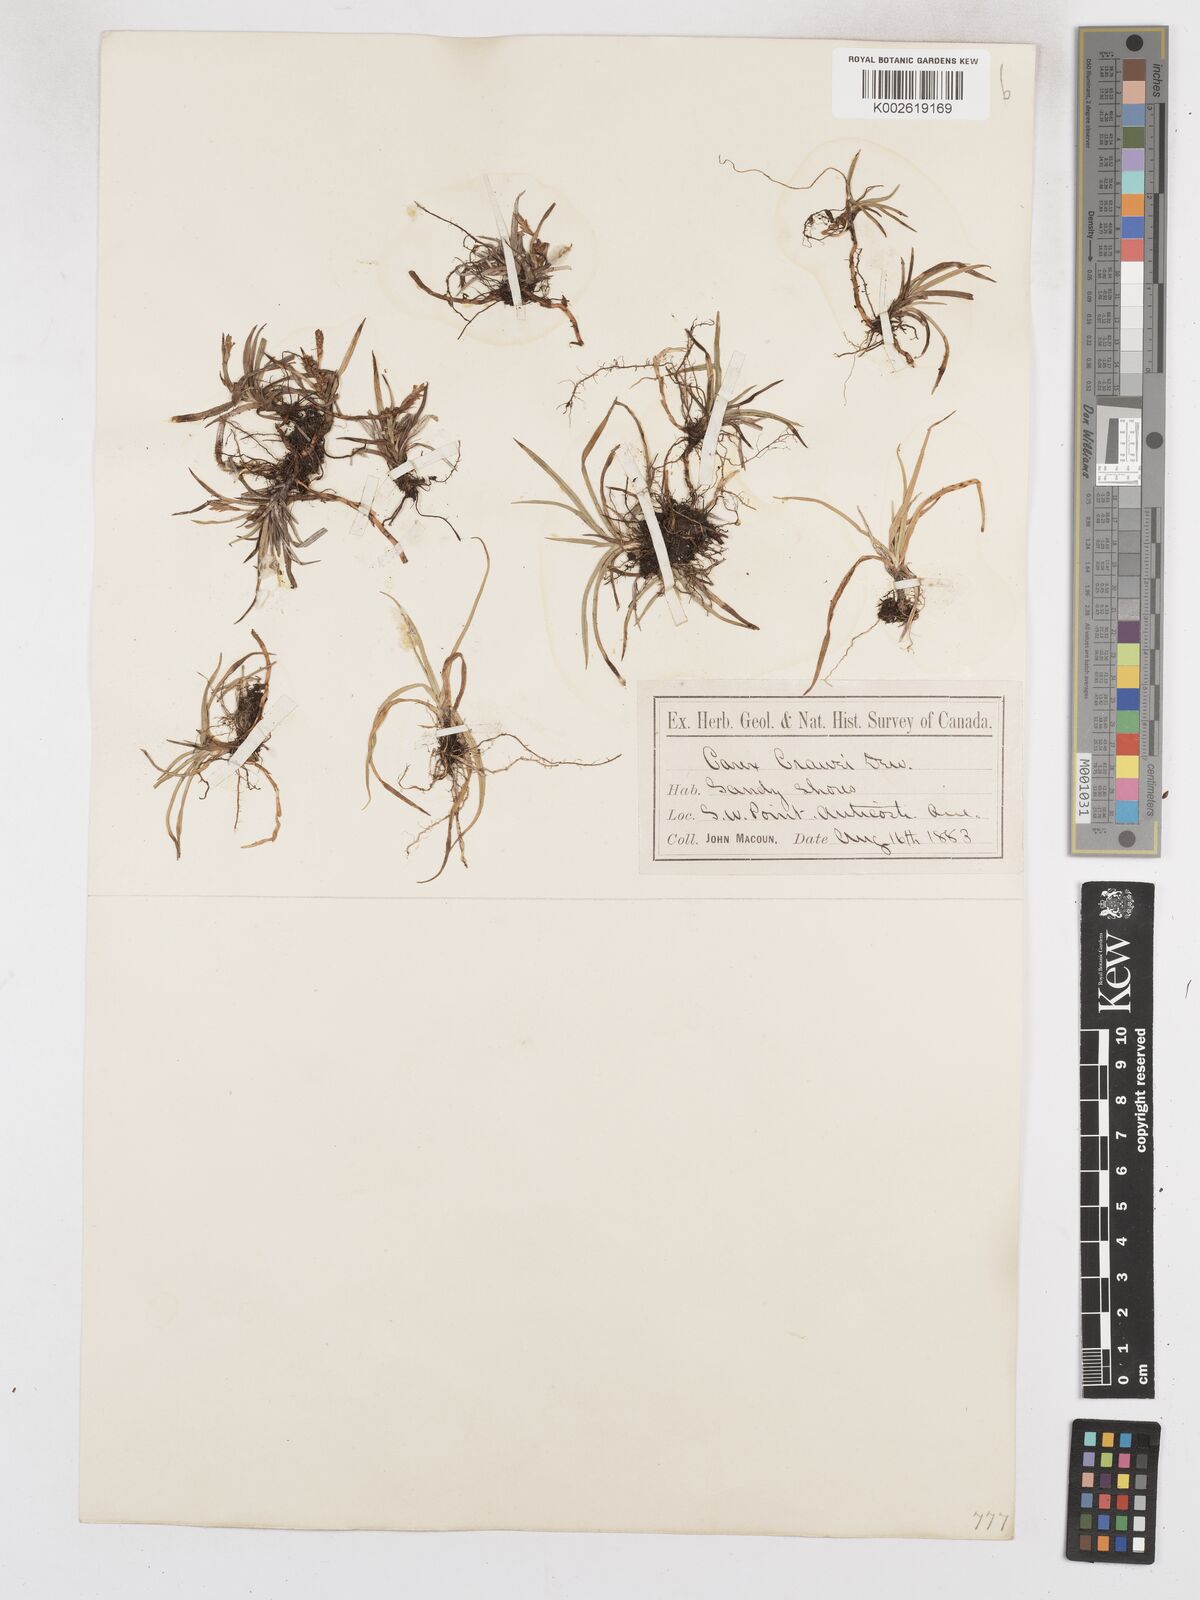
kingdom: Plantae
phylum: Tracheophyta
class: Liliopsida
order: Poales
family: Cyperaceae
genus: Carex
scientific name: Carex crawei
